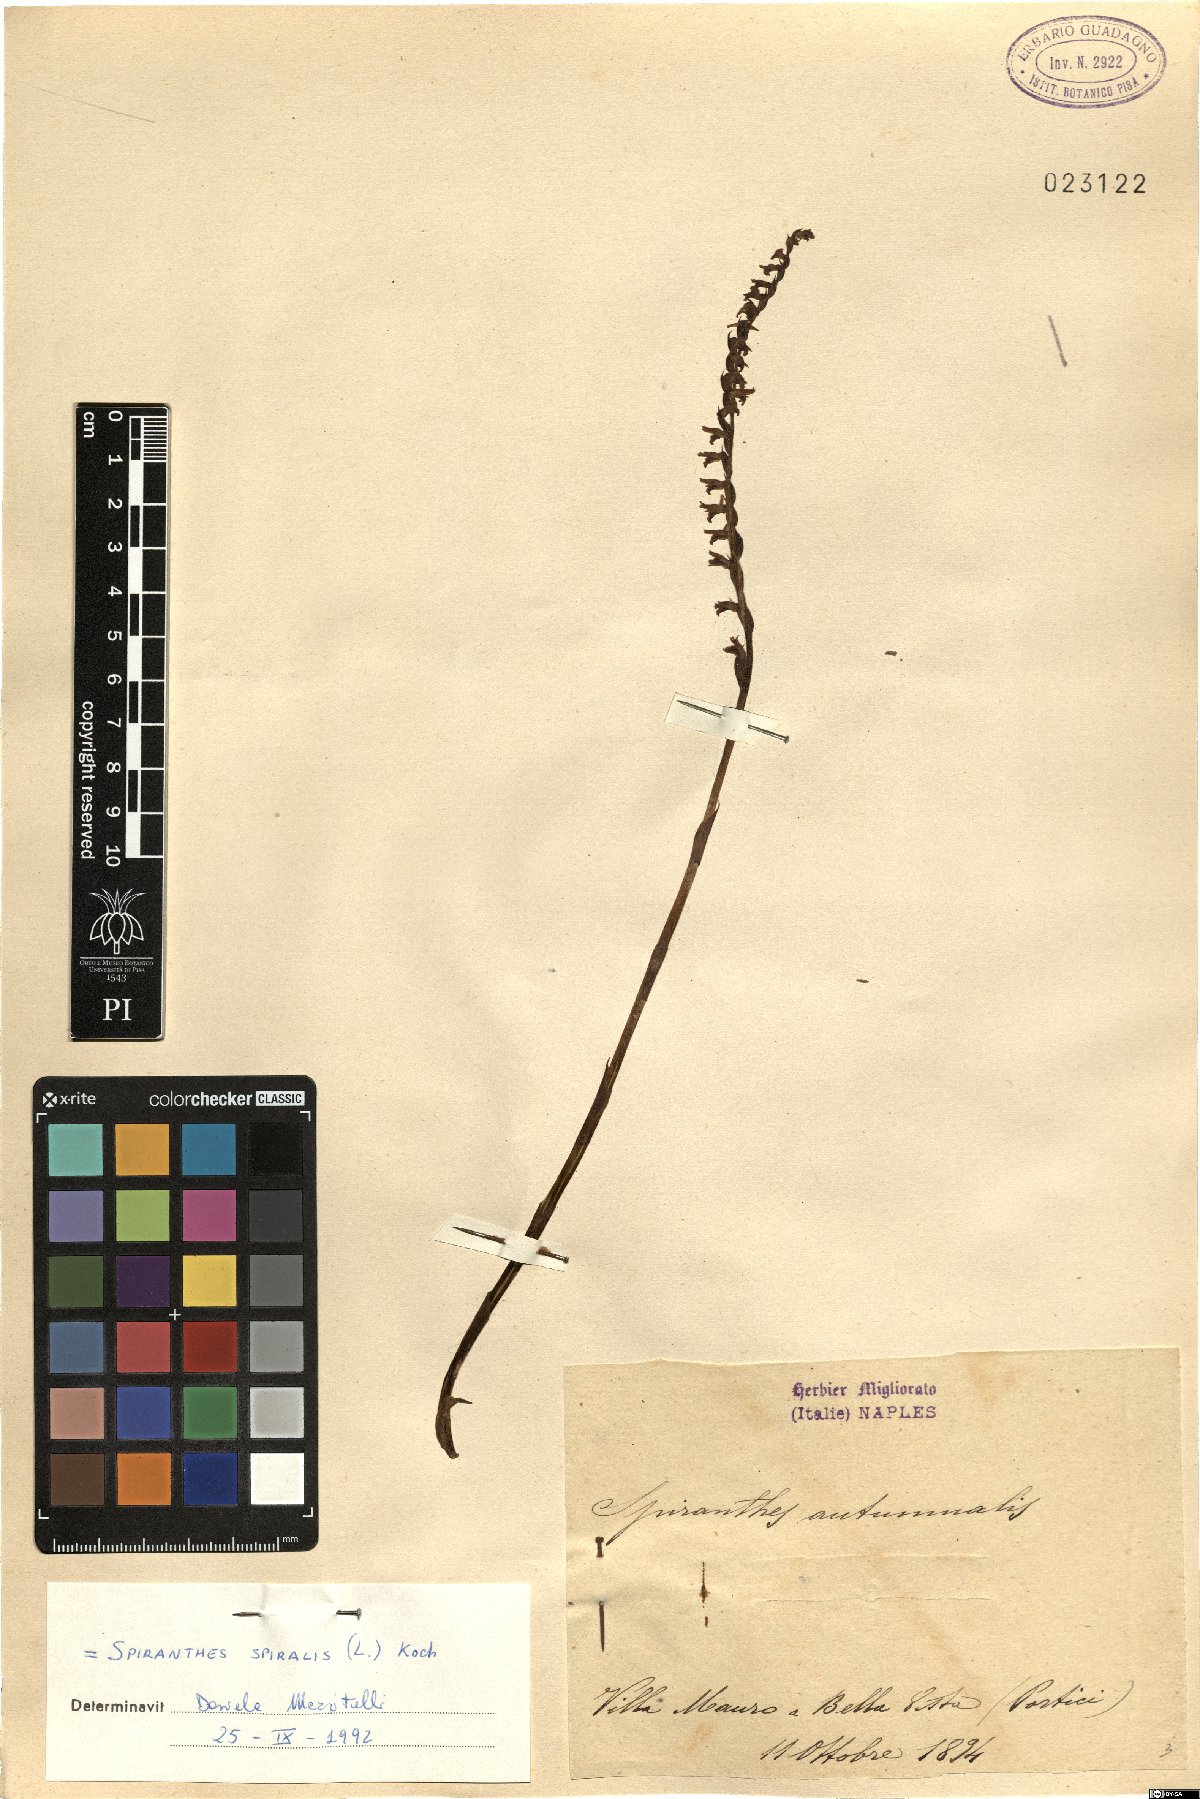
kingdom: Plantae
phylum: Tracheophyta
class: Liliopsida
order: Asparagales
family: Orchidaceae
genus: Spiranthes
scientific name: Spiranthes spiralis
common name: Autumn lady's-tresses
